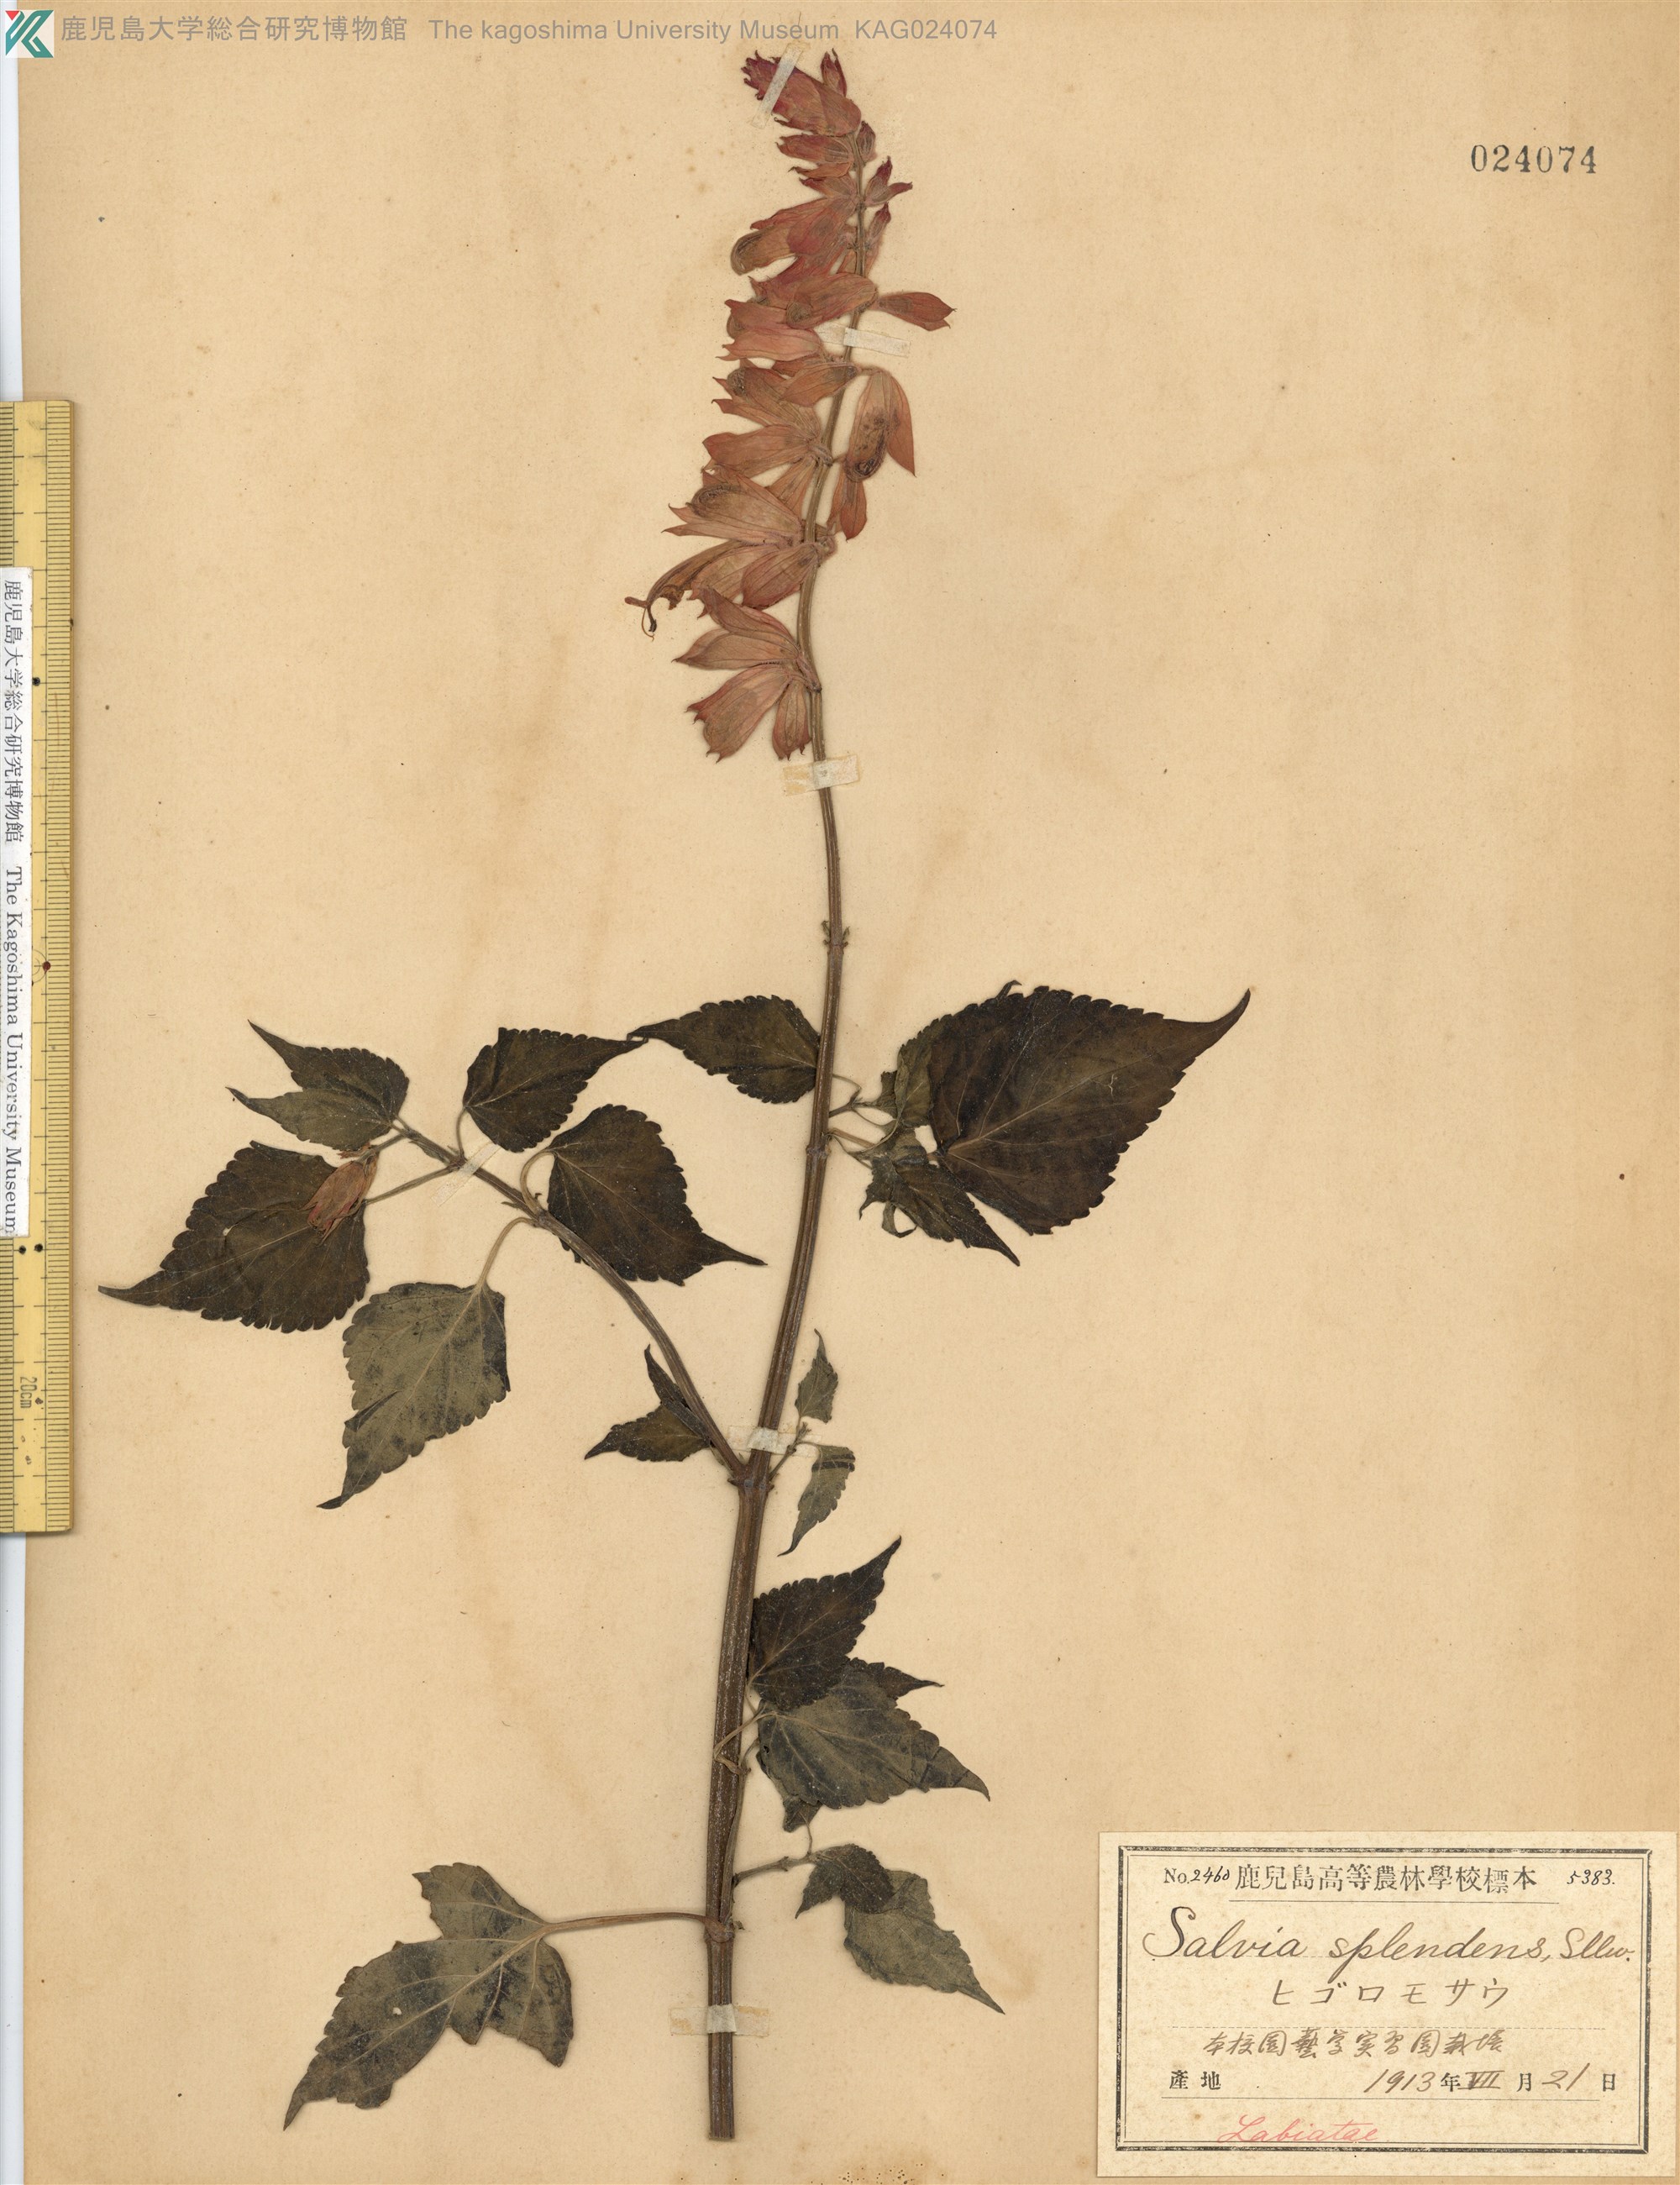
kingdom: Plantae
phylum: Tracheophyta
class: Magnoliopsida
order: Lamiales
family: Lamiaceae
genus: Salvia
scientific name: Salvia splendens
